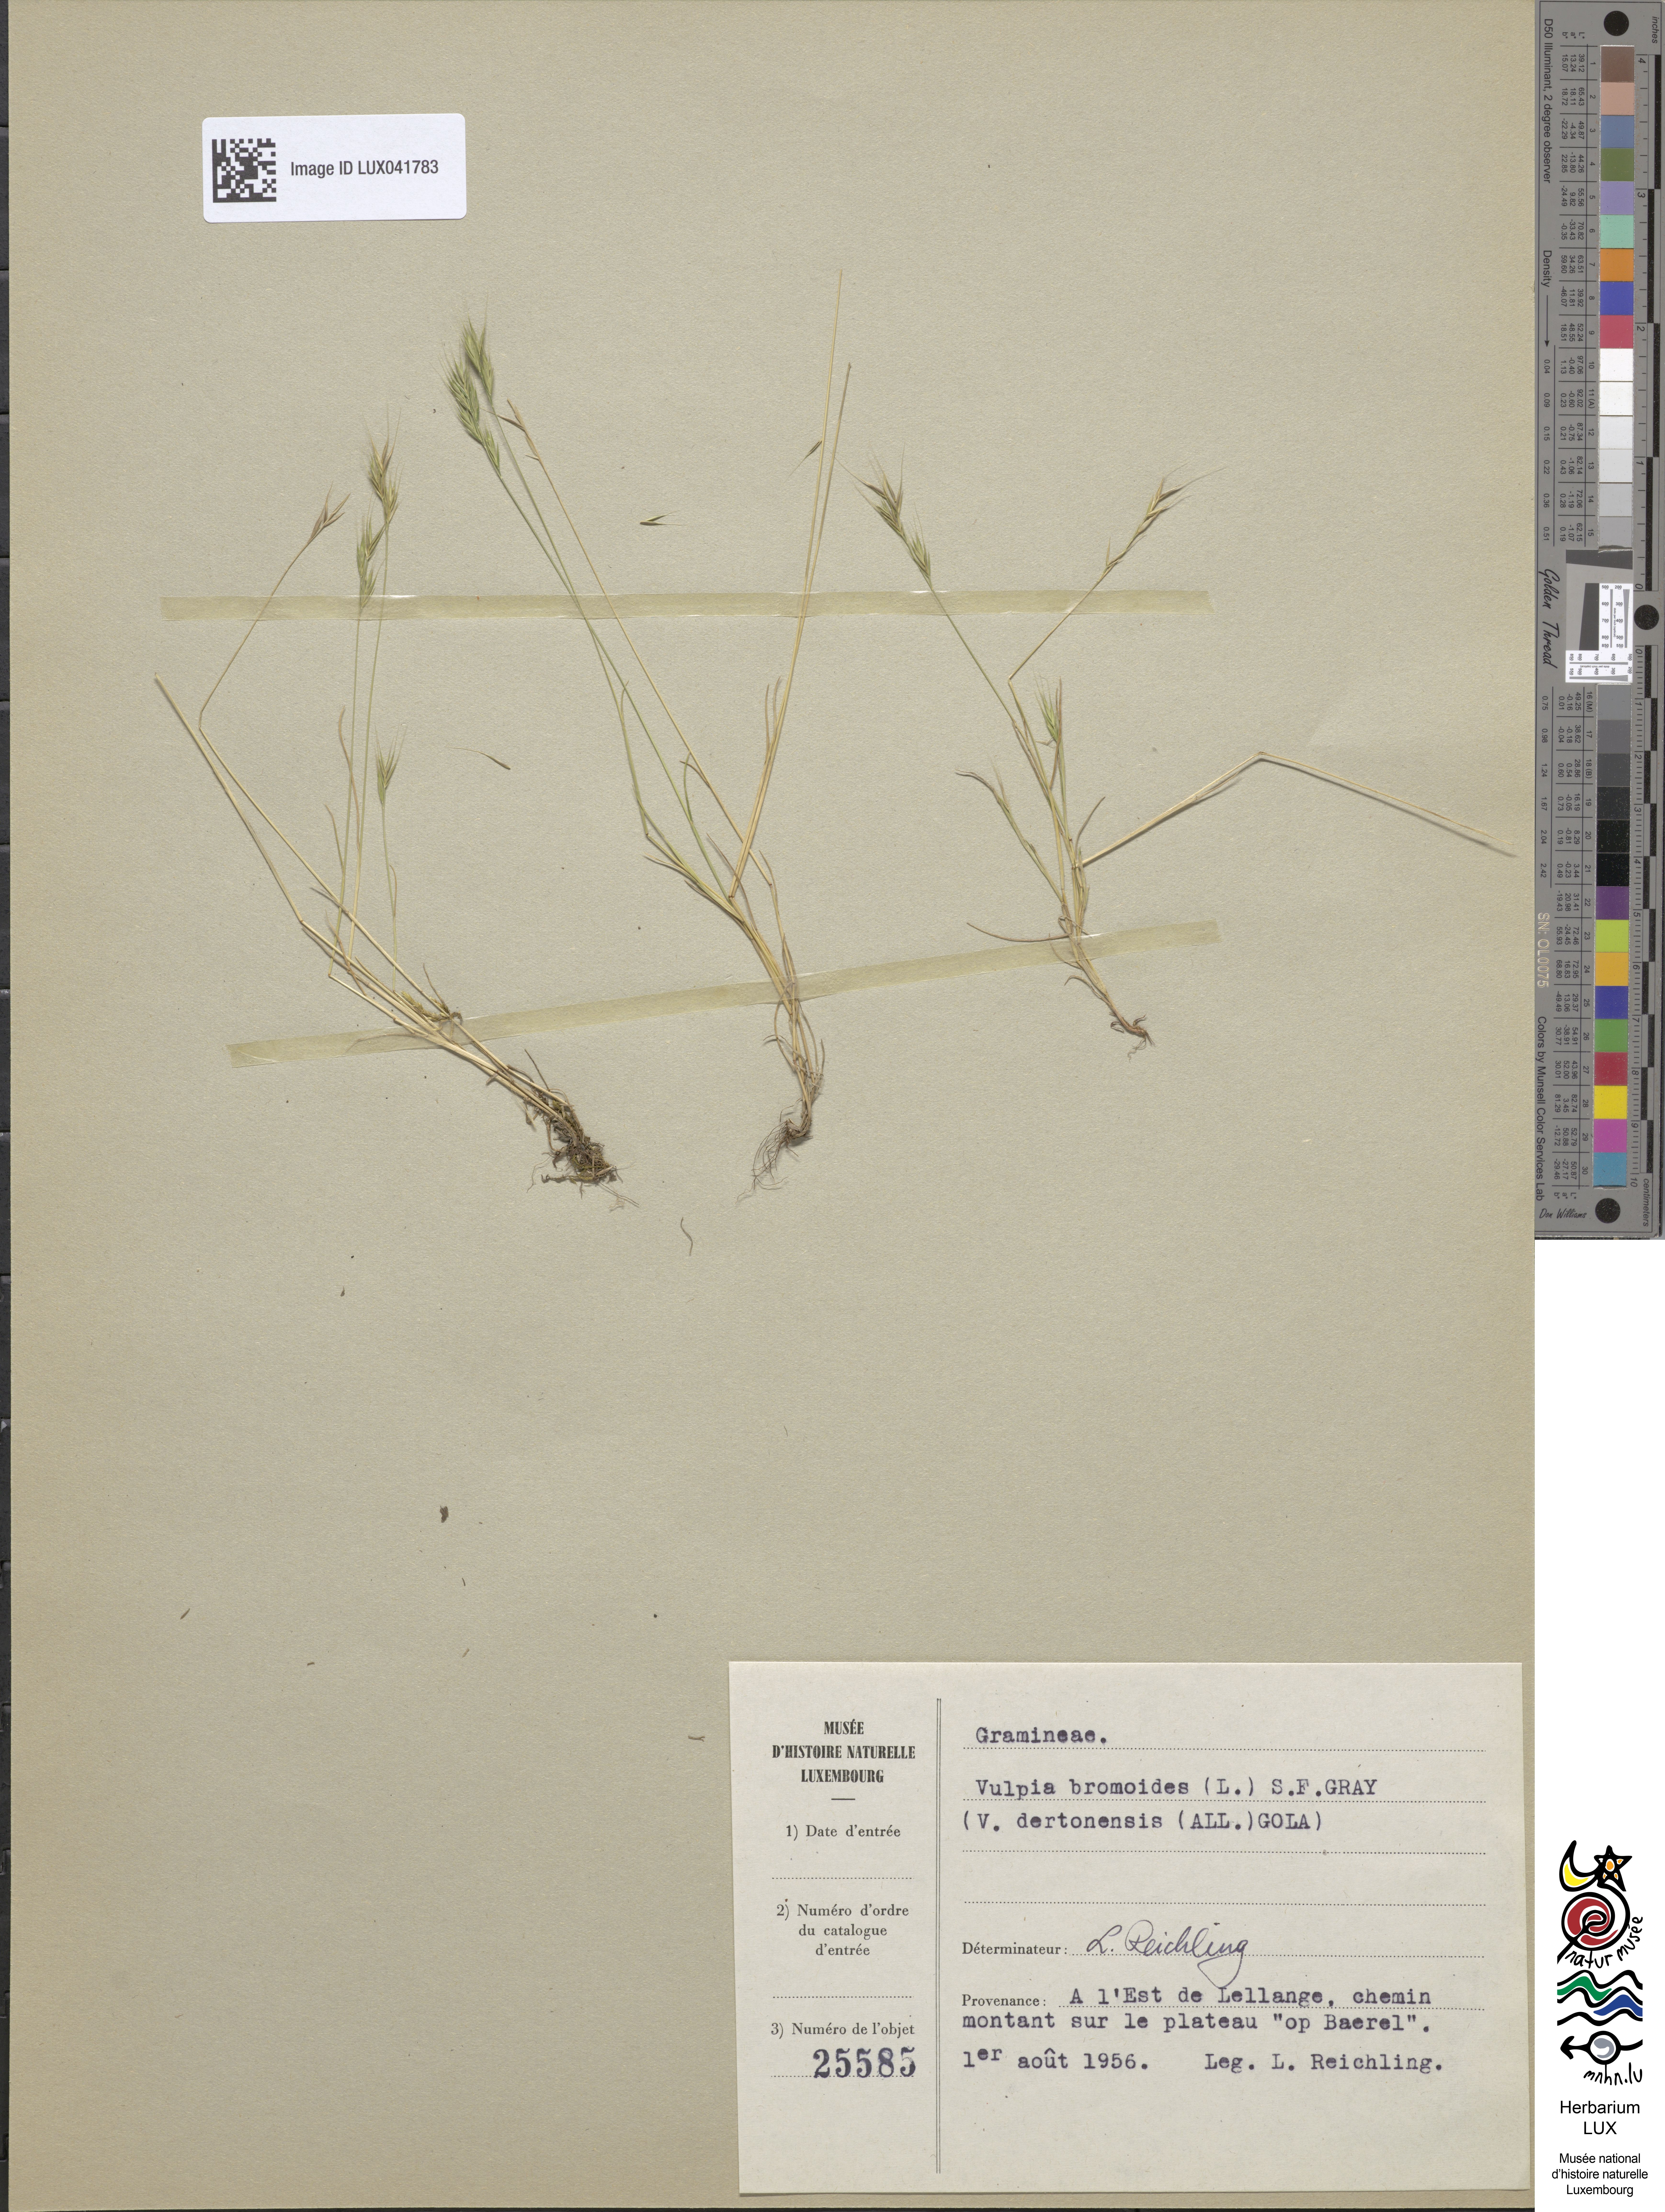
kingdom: Plantae
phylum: Tracheophyta
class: Liliopsida
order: Poales
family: Poaceae
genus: Festuca
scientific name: Festuca bromoides
